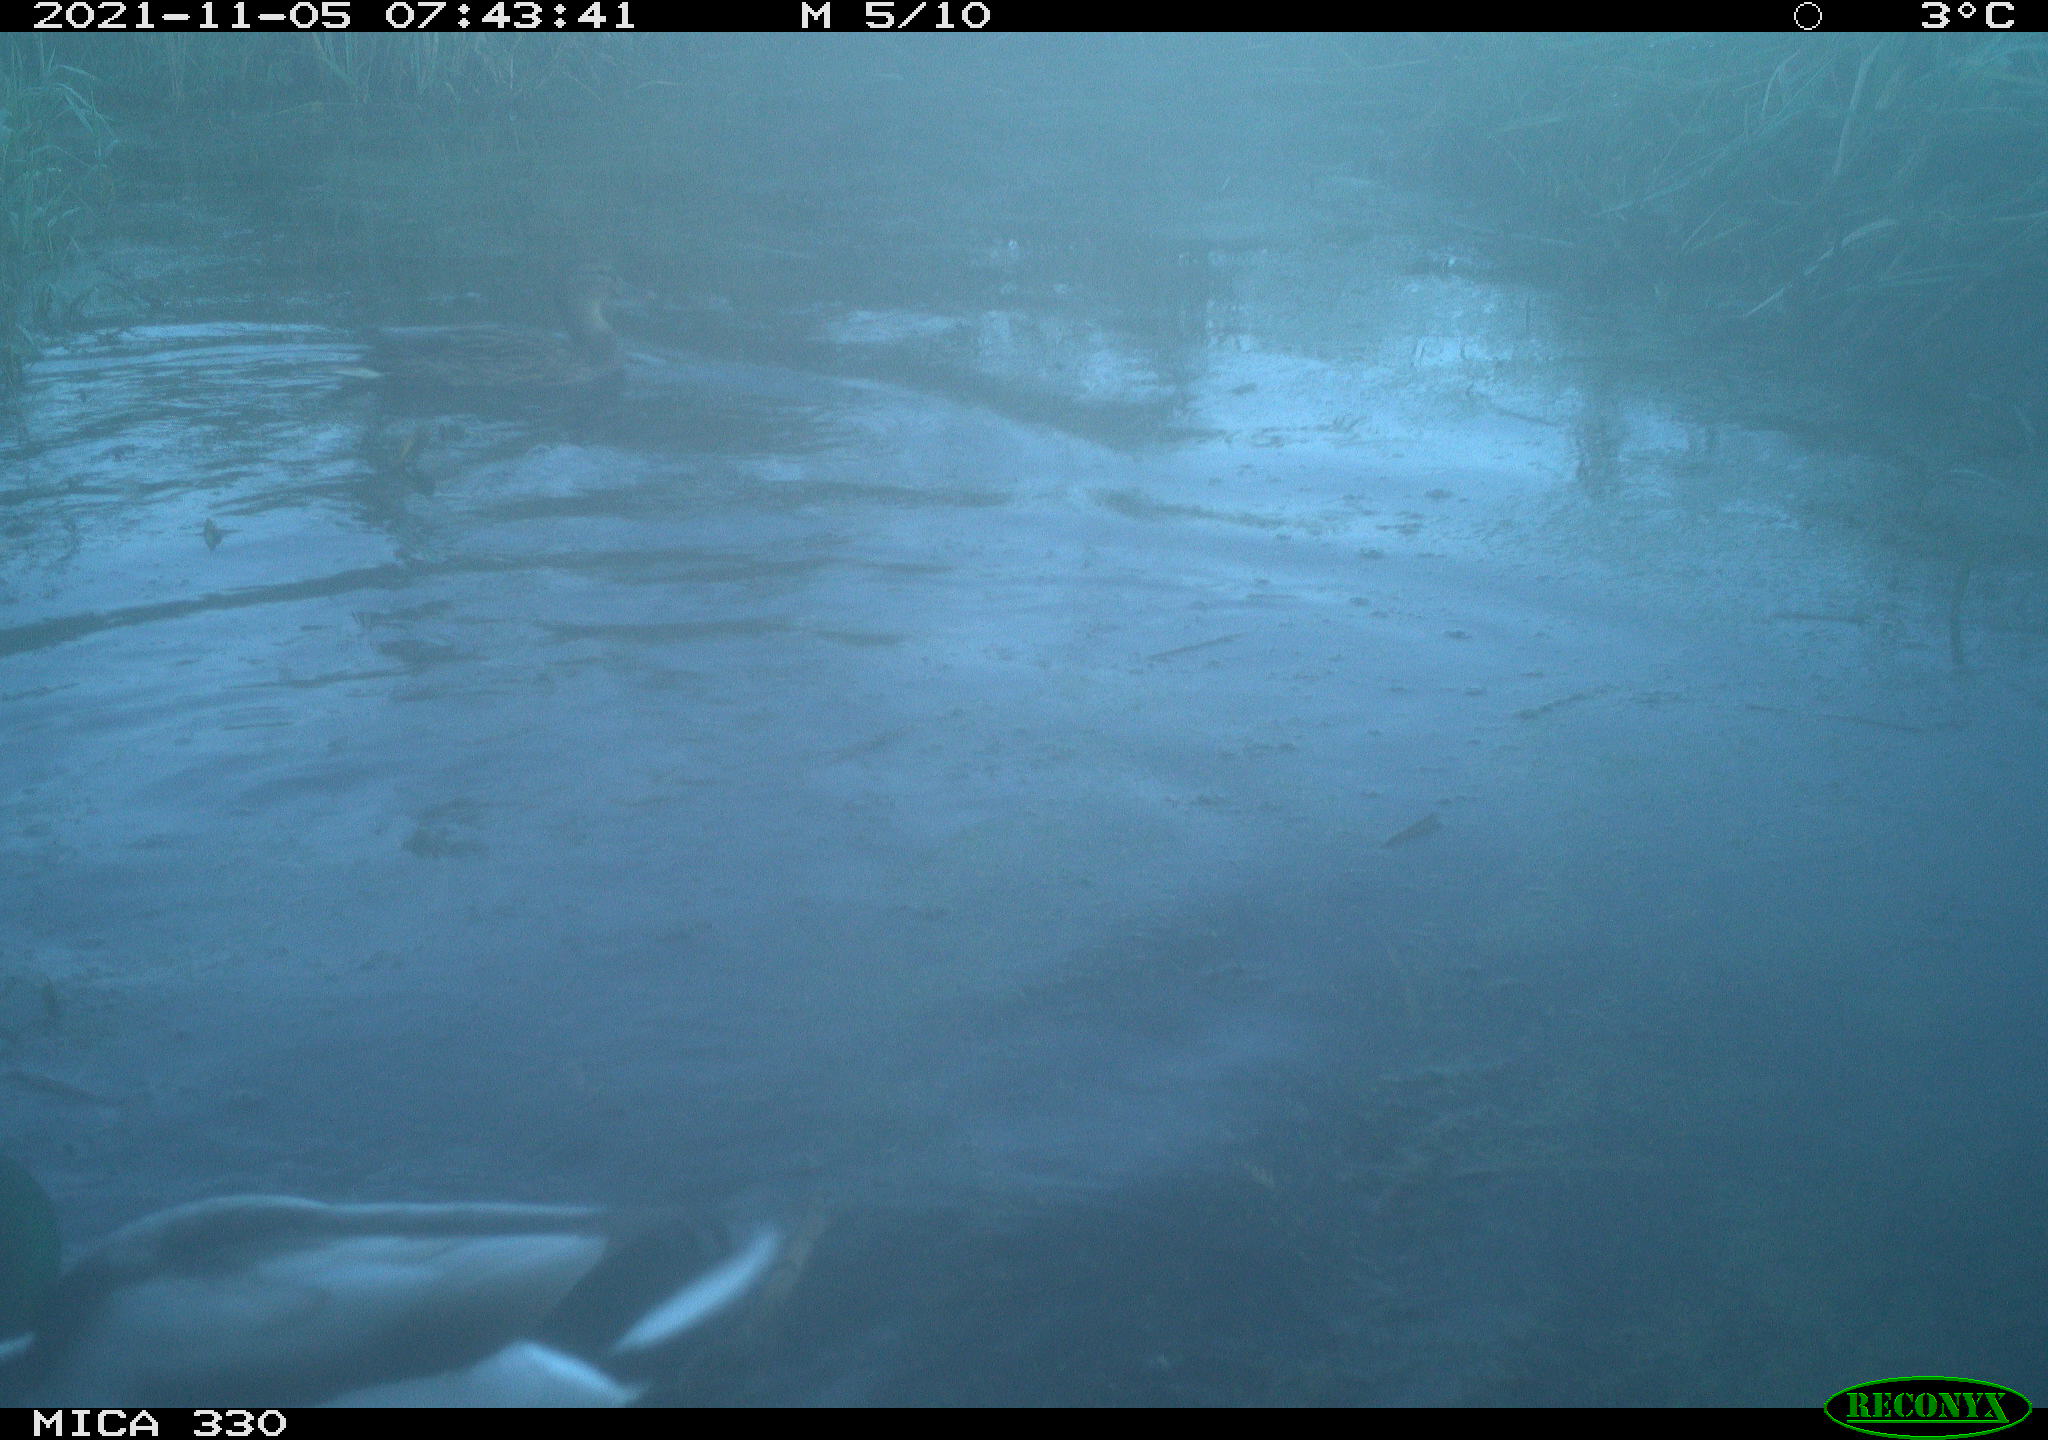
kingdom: Animalia
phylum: Chordata
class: Aves
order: Anseriformes
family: Anatidae
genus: Anas
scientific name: Anas platyrhynchos
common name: Mallard
